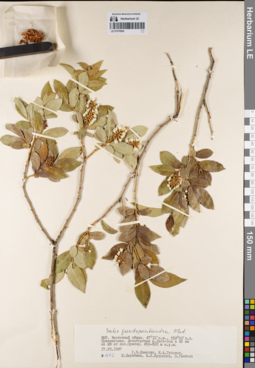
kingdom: Plantae
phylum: Tracheophyta
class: Magnoliopsida
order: Malpighiales
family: Salicaceae
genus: Salix
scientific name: Salix pseudopentandra
